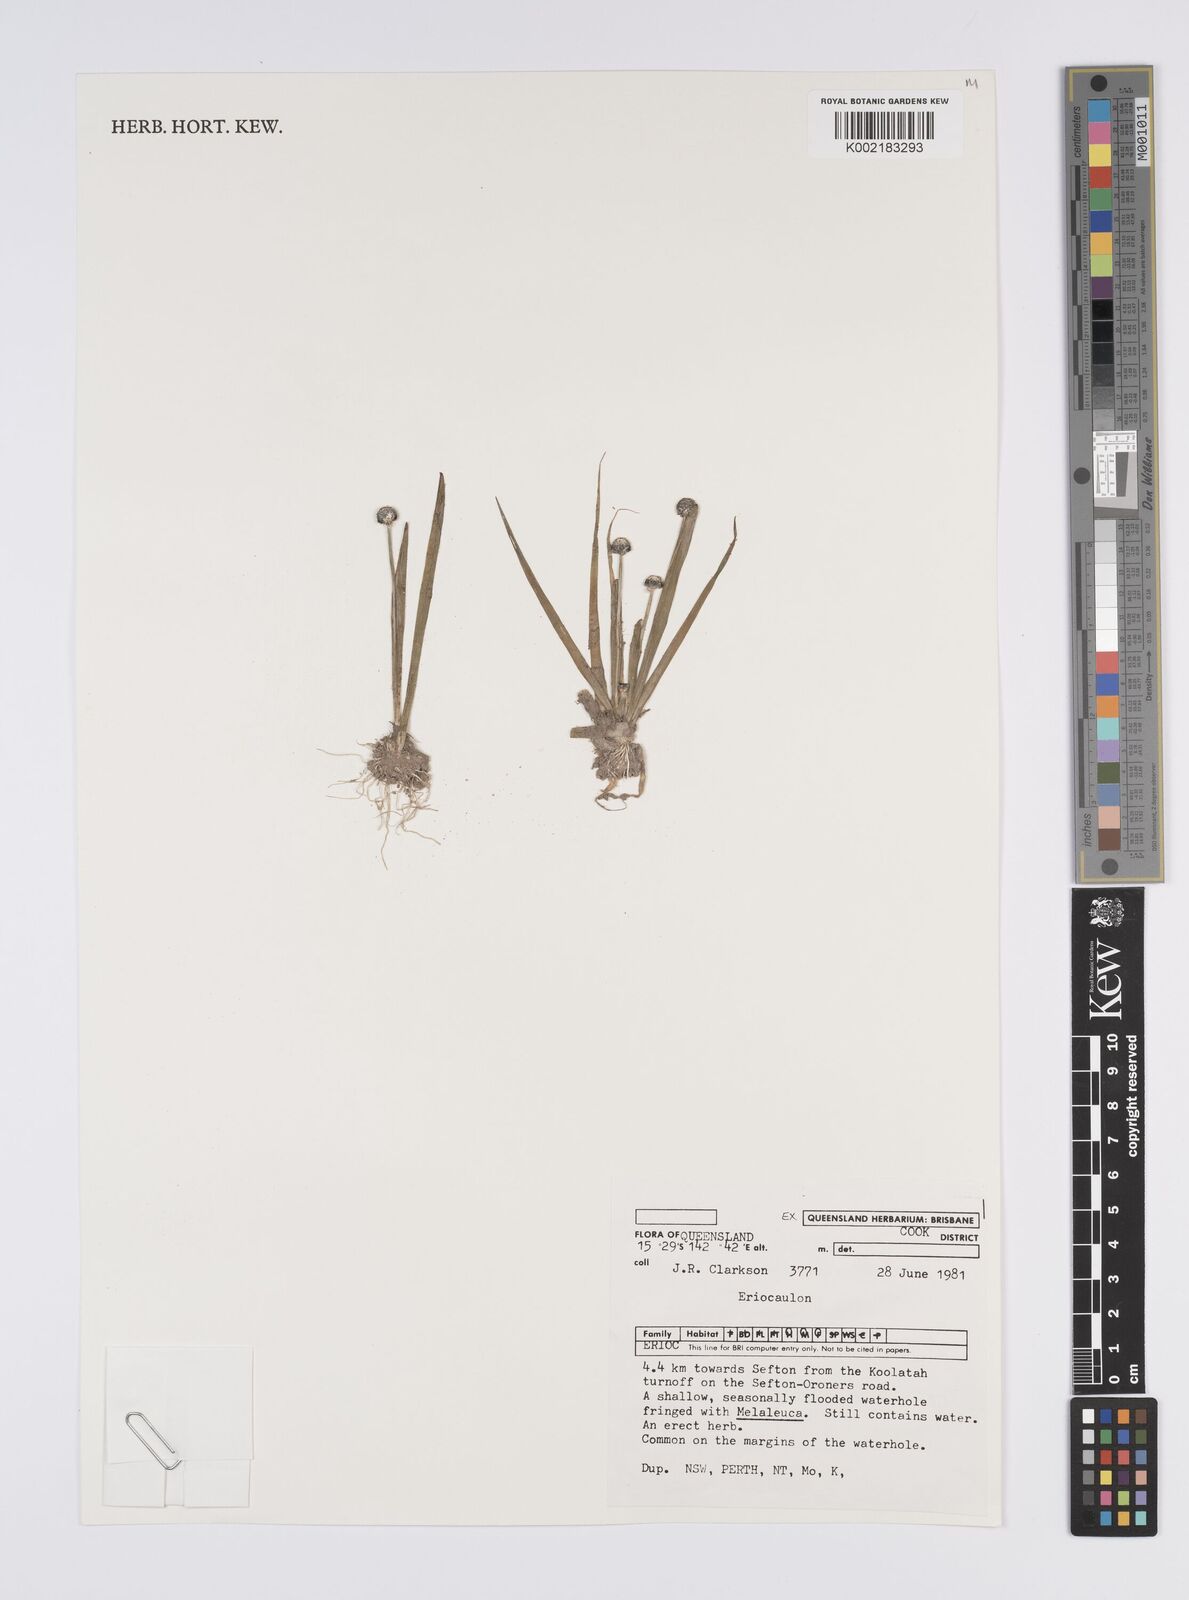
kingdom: Plantae
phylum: Tracheophyta
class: Liliopsida
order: Poales
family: Eriocaulaceae
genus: Eriocaulon
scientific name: Eriocaulon
